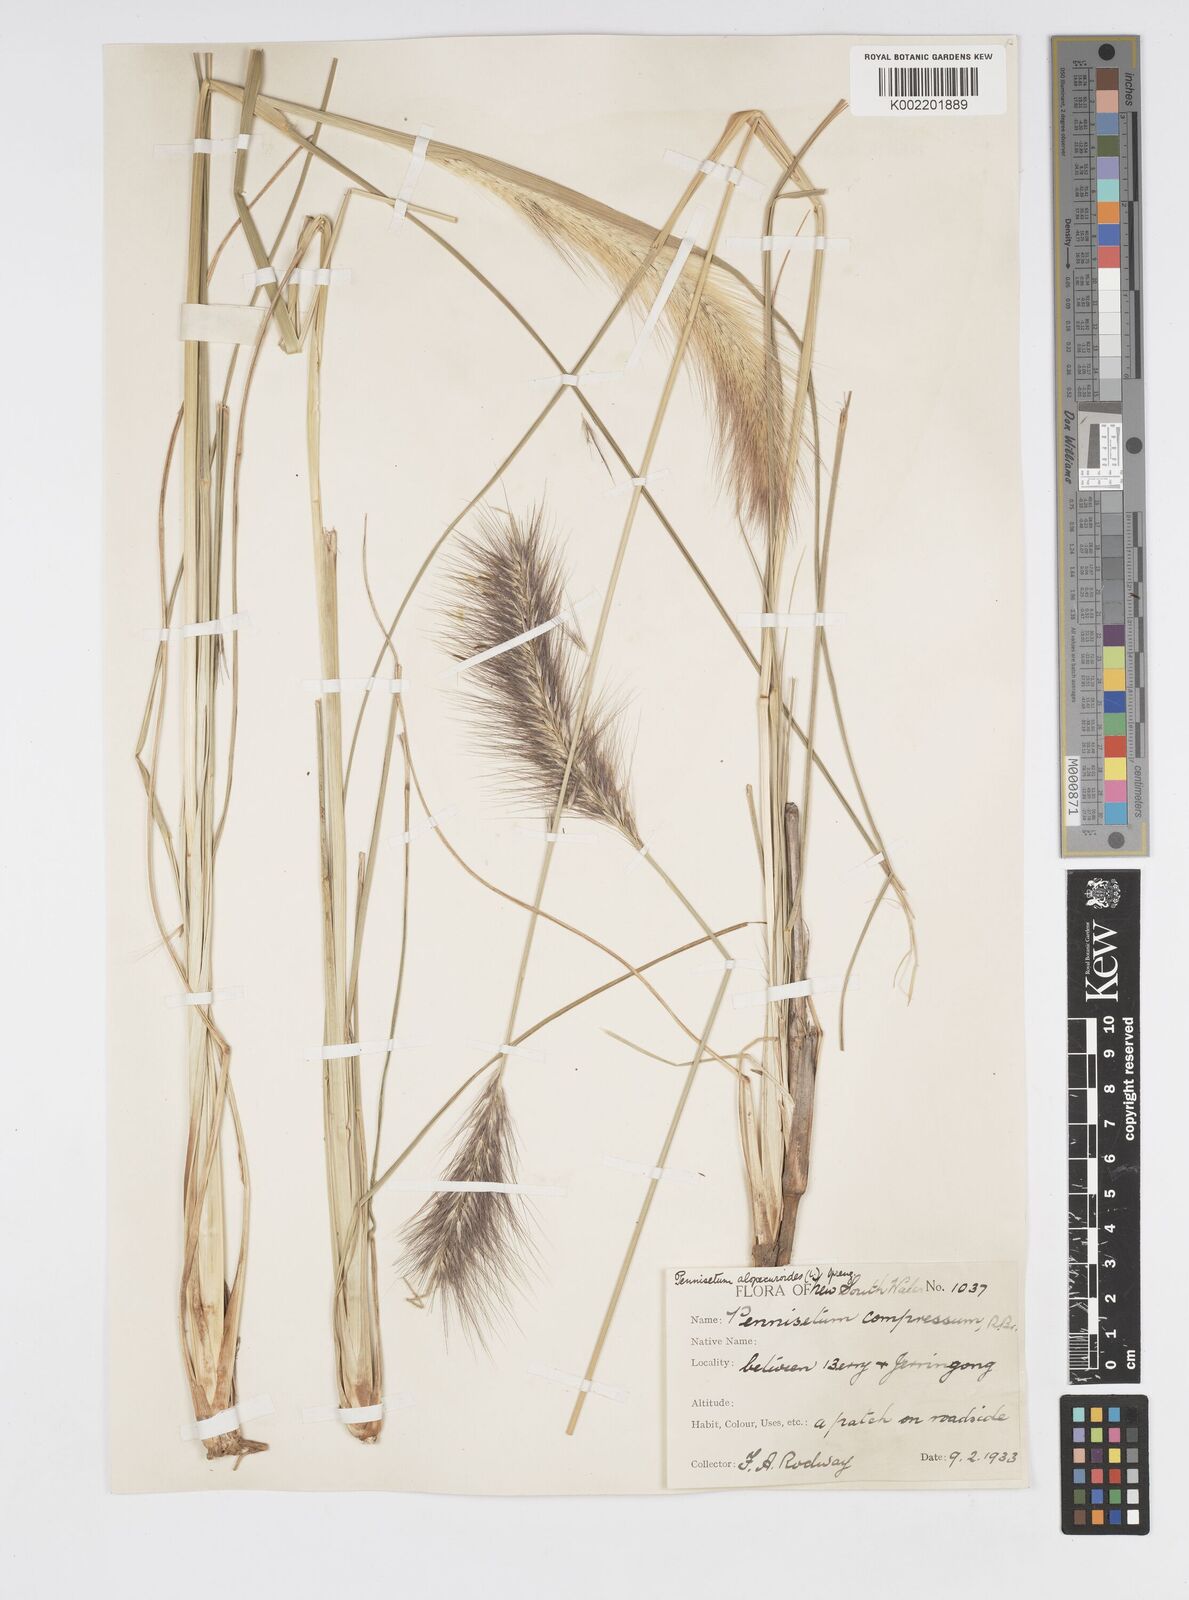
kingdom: Plantae
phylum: Tracheophyta
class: Liliopsida
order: Poales
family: Poaceae
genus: Cenchrus
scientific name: Cenchrus alopecuroides
